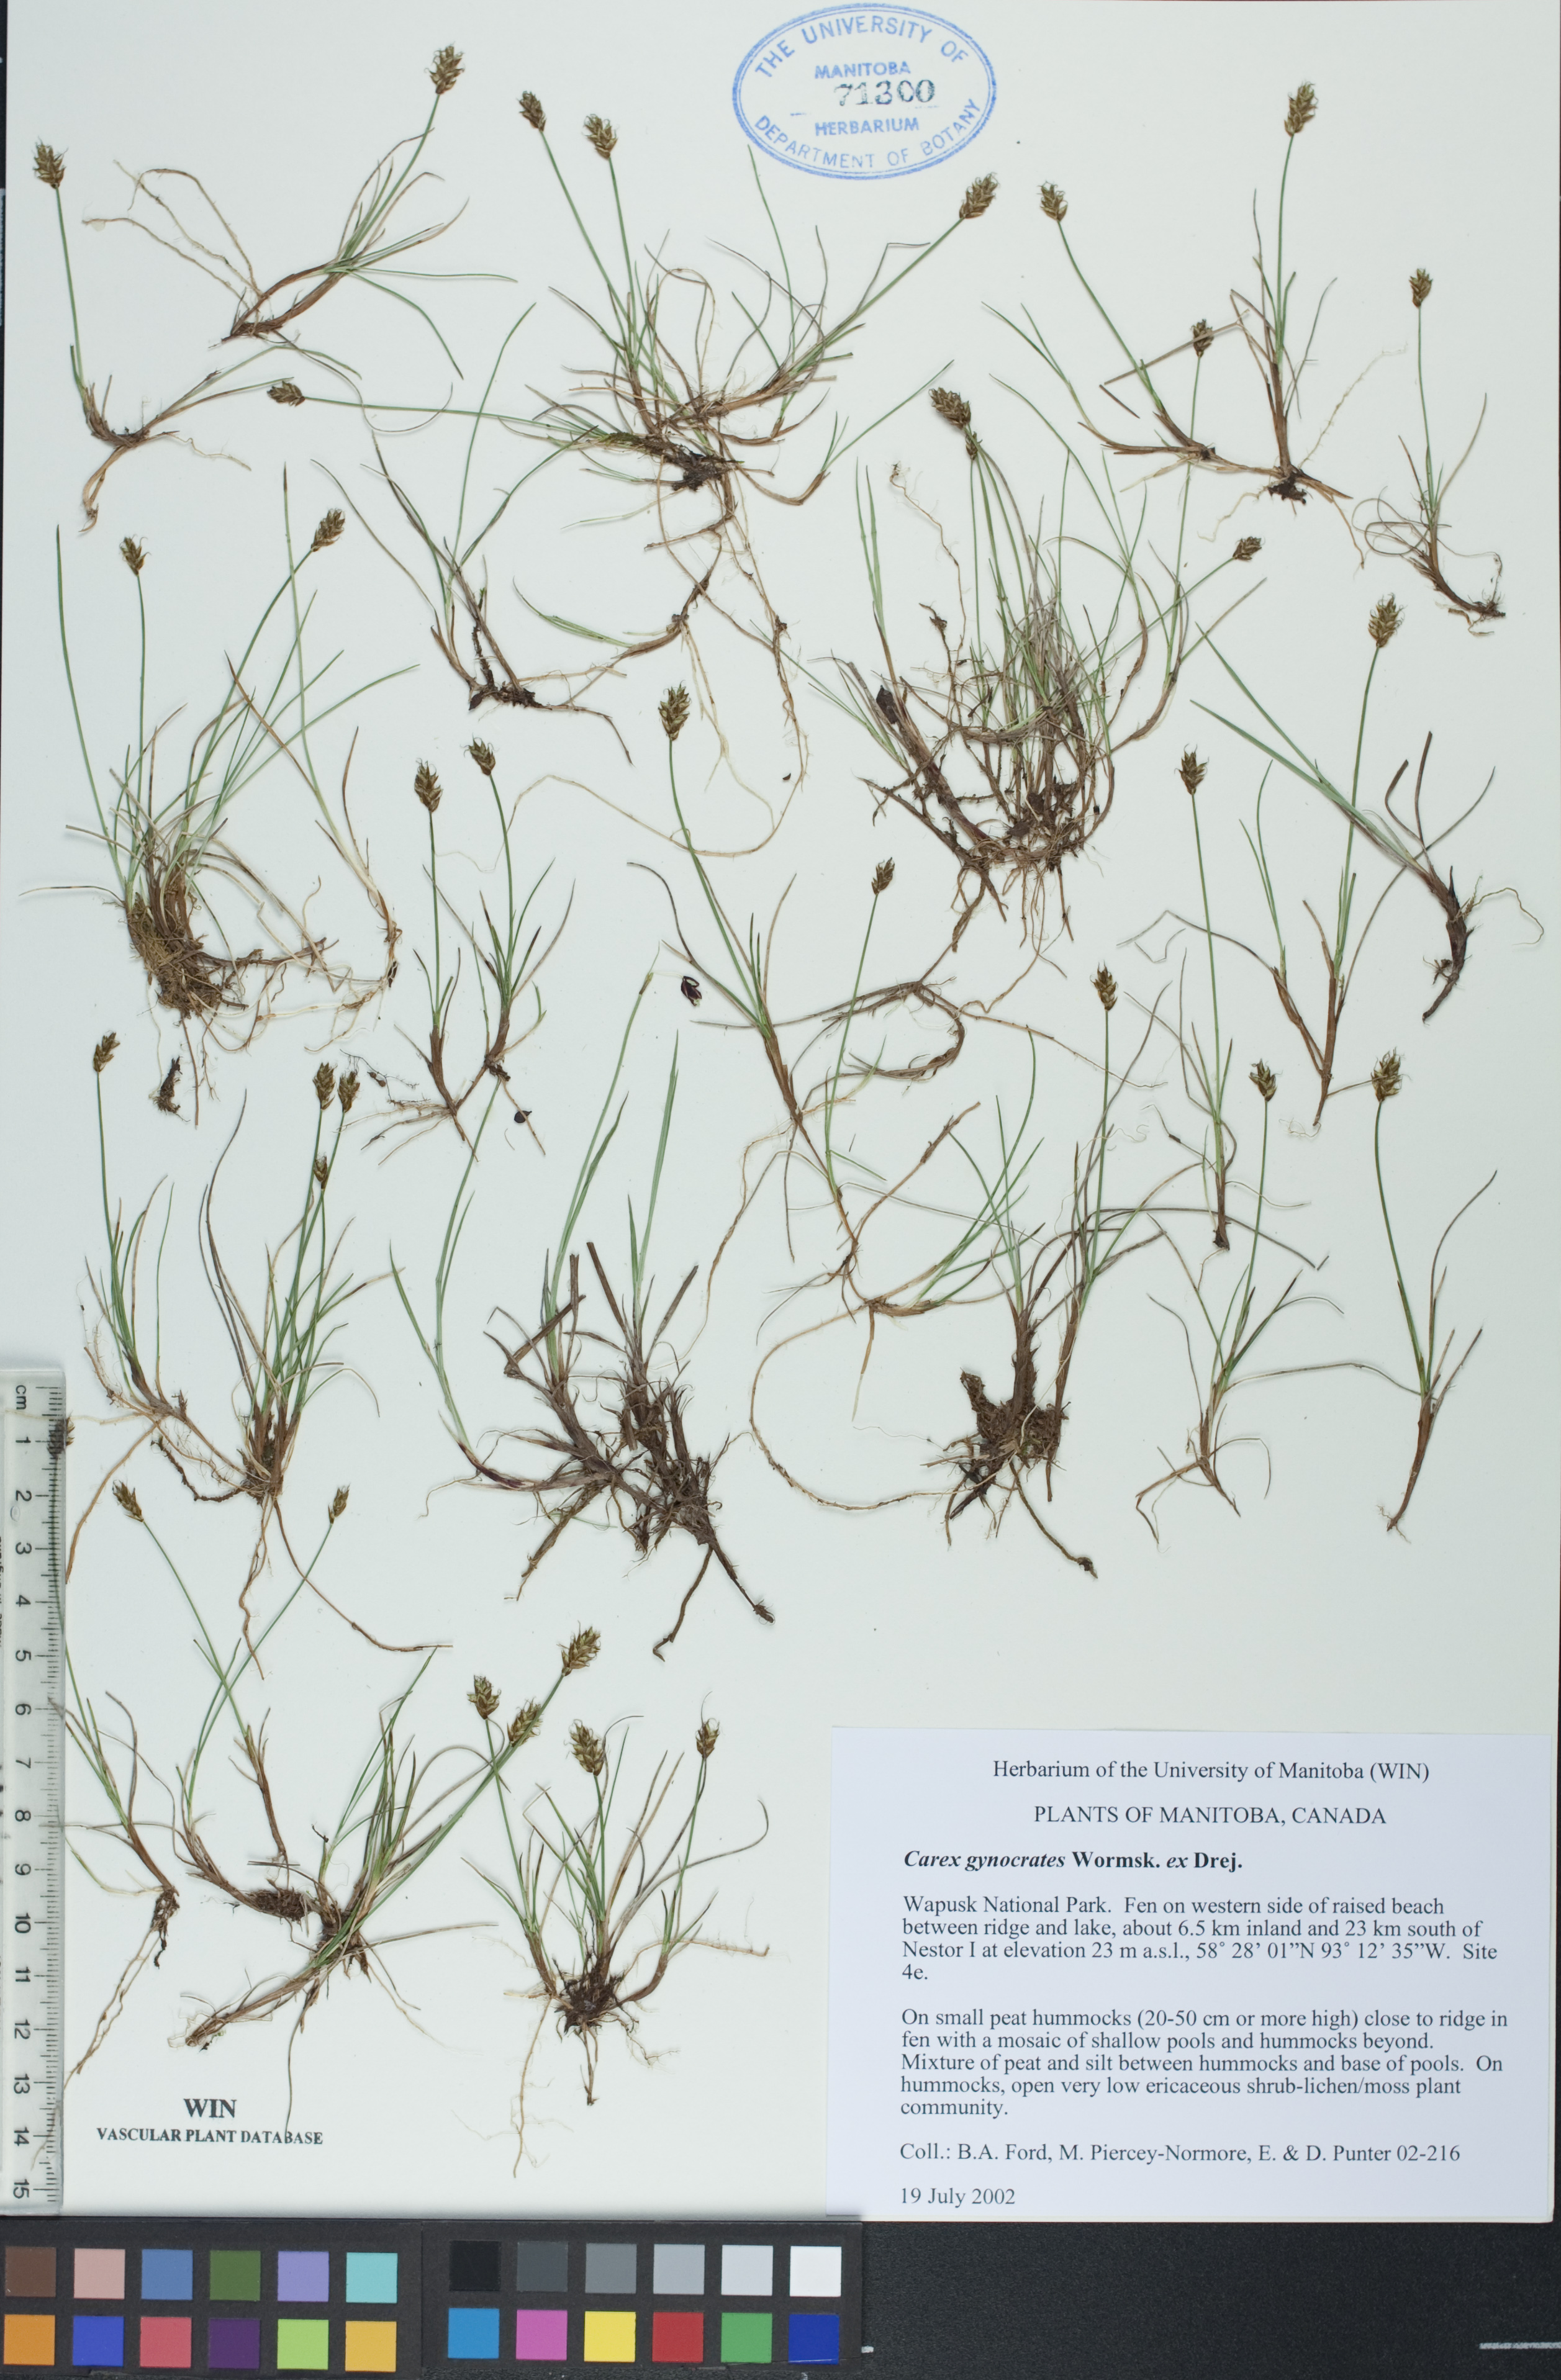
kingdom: Plantae
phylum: Tracheophyta
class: Liliopsida
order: Poales
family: Cyperaceae
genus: Carex
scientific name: Carex nardina
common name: Nard sedge
